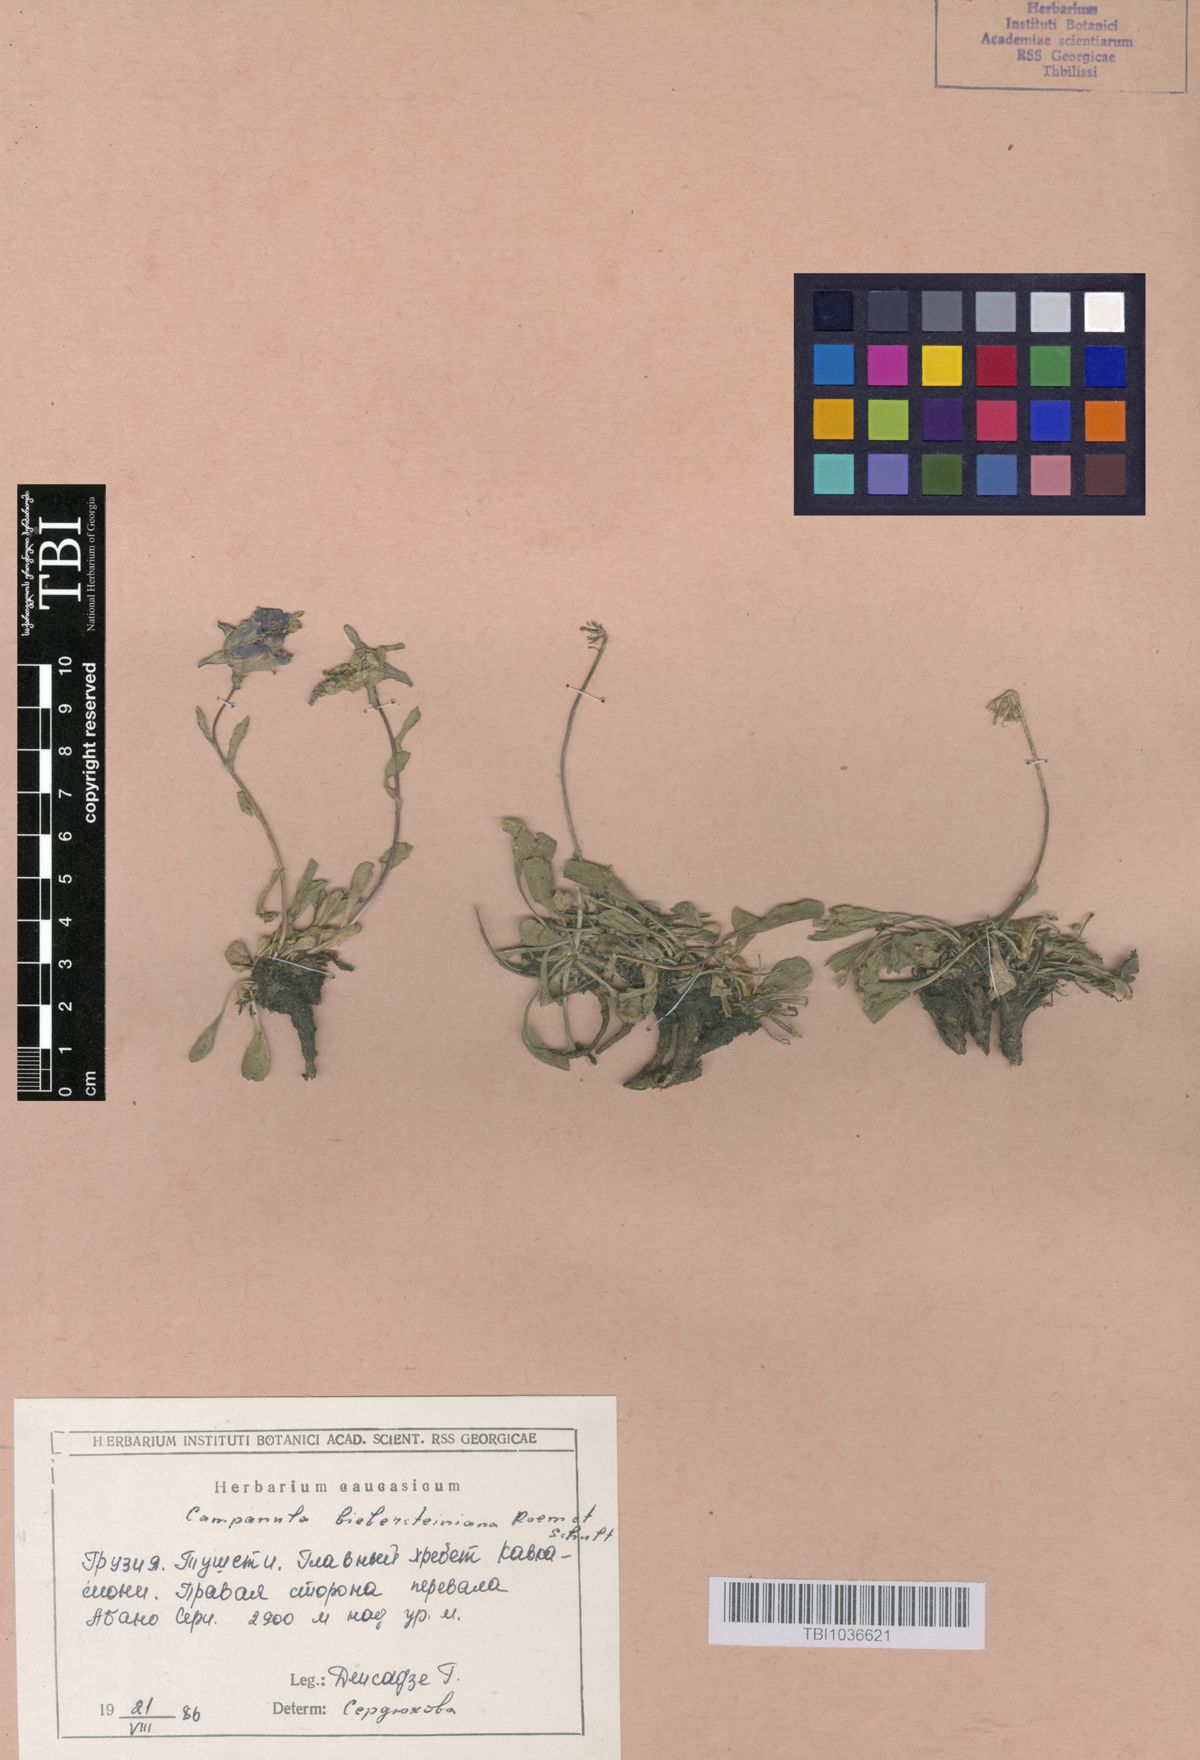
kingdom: Plantae
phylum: Tracheophyta
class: Magnoliopsida
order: Asterales
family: Campanulaceae
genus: Campanula
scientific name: Campanula tridentata
